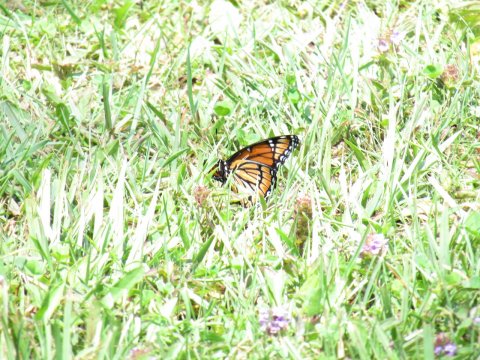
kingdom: Animalia
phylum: Arthropoda
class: Insecta
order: Lepidoptera
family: Nymphalidae
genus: Limenitis
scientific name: Limenitis archippus
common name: Viceroy
